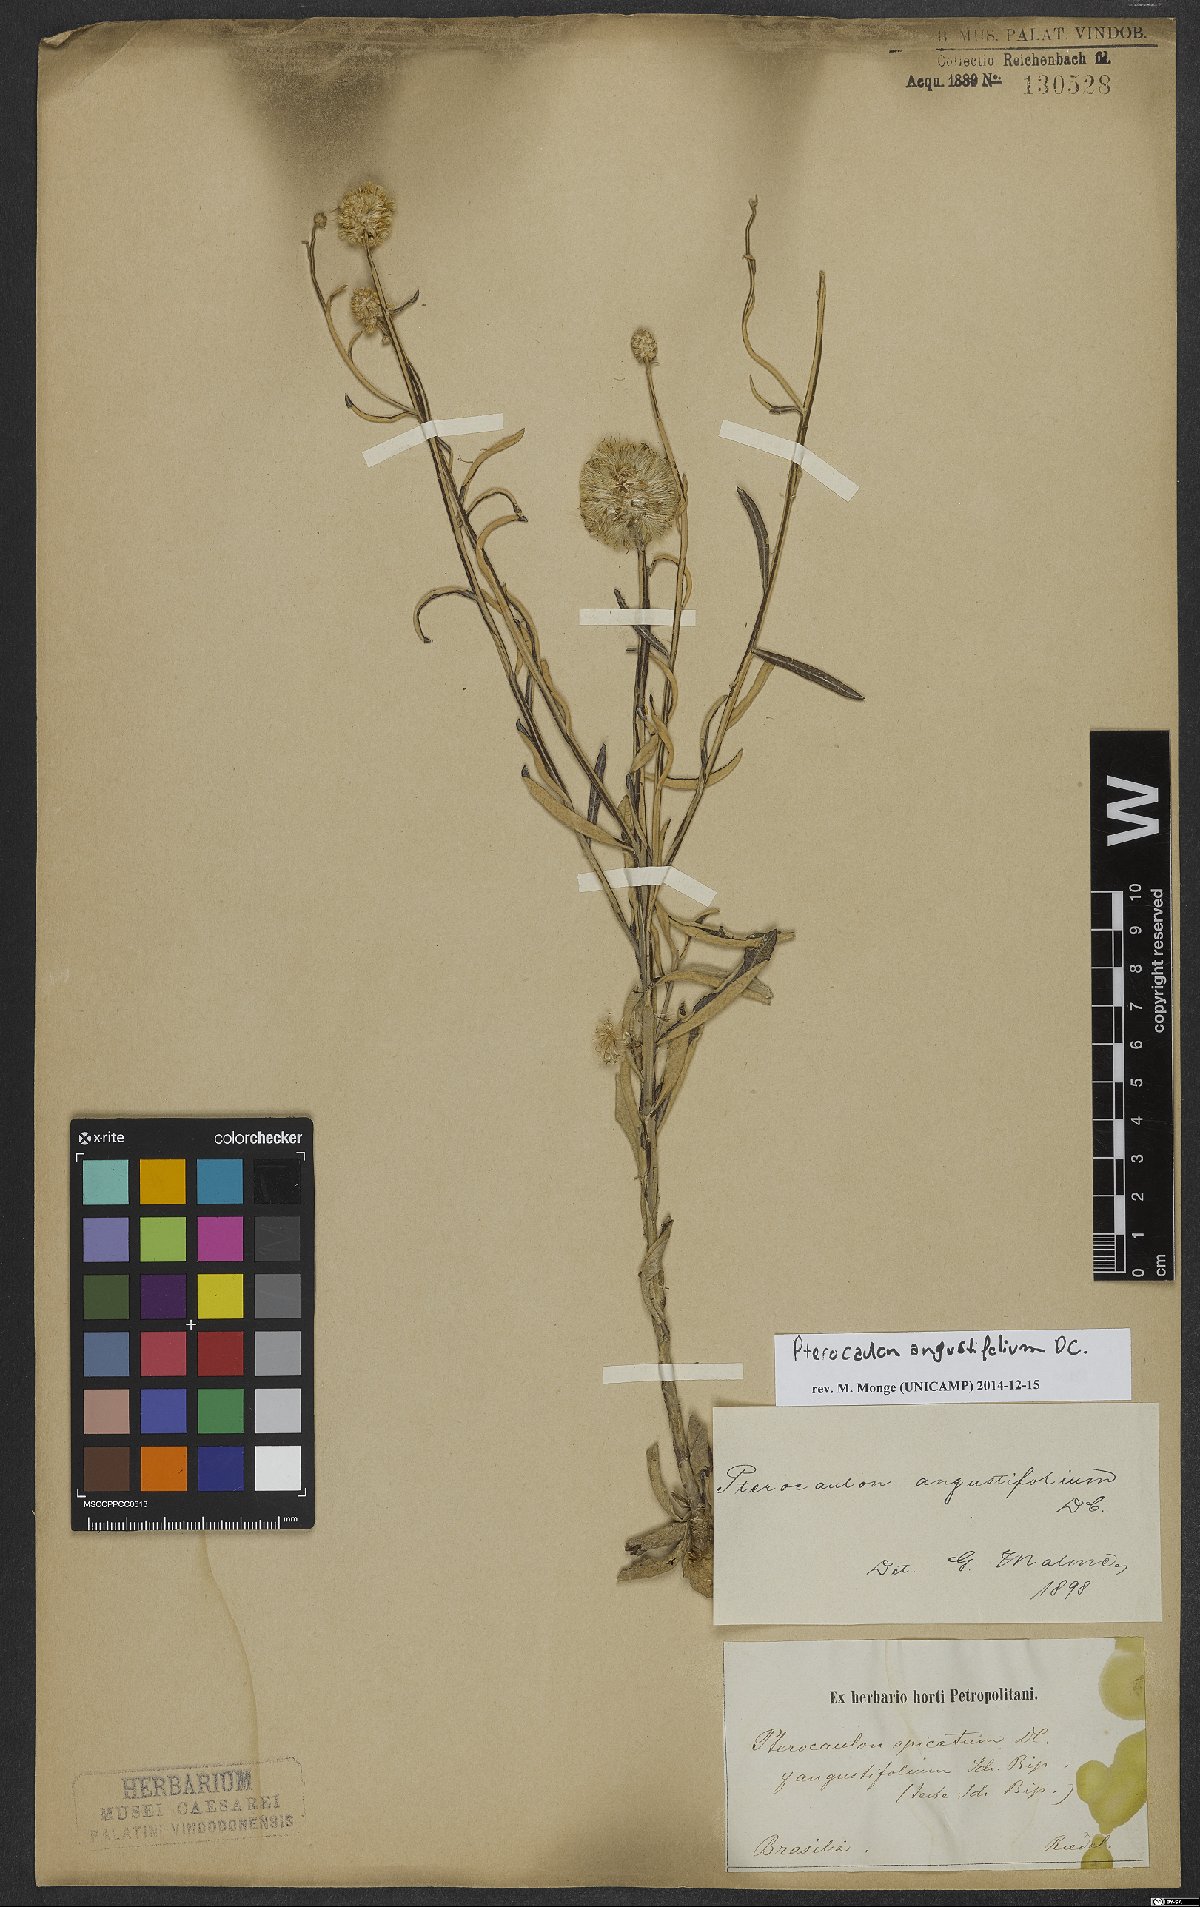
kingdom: Plantae
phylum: Tracheophyta
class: Magnoliopsida
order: Asterales
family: Asteraceae
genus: Pterocaulon
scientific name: Pterocaulon angustifolium
